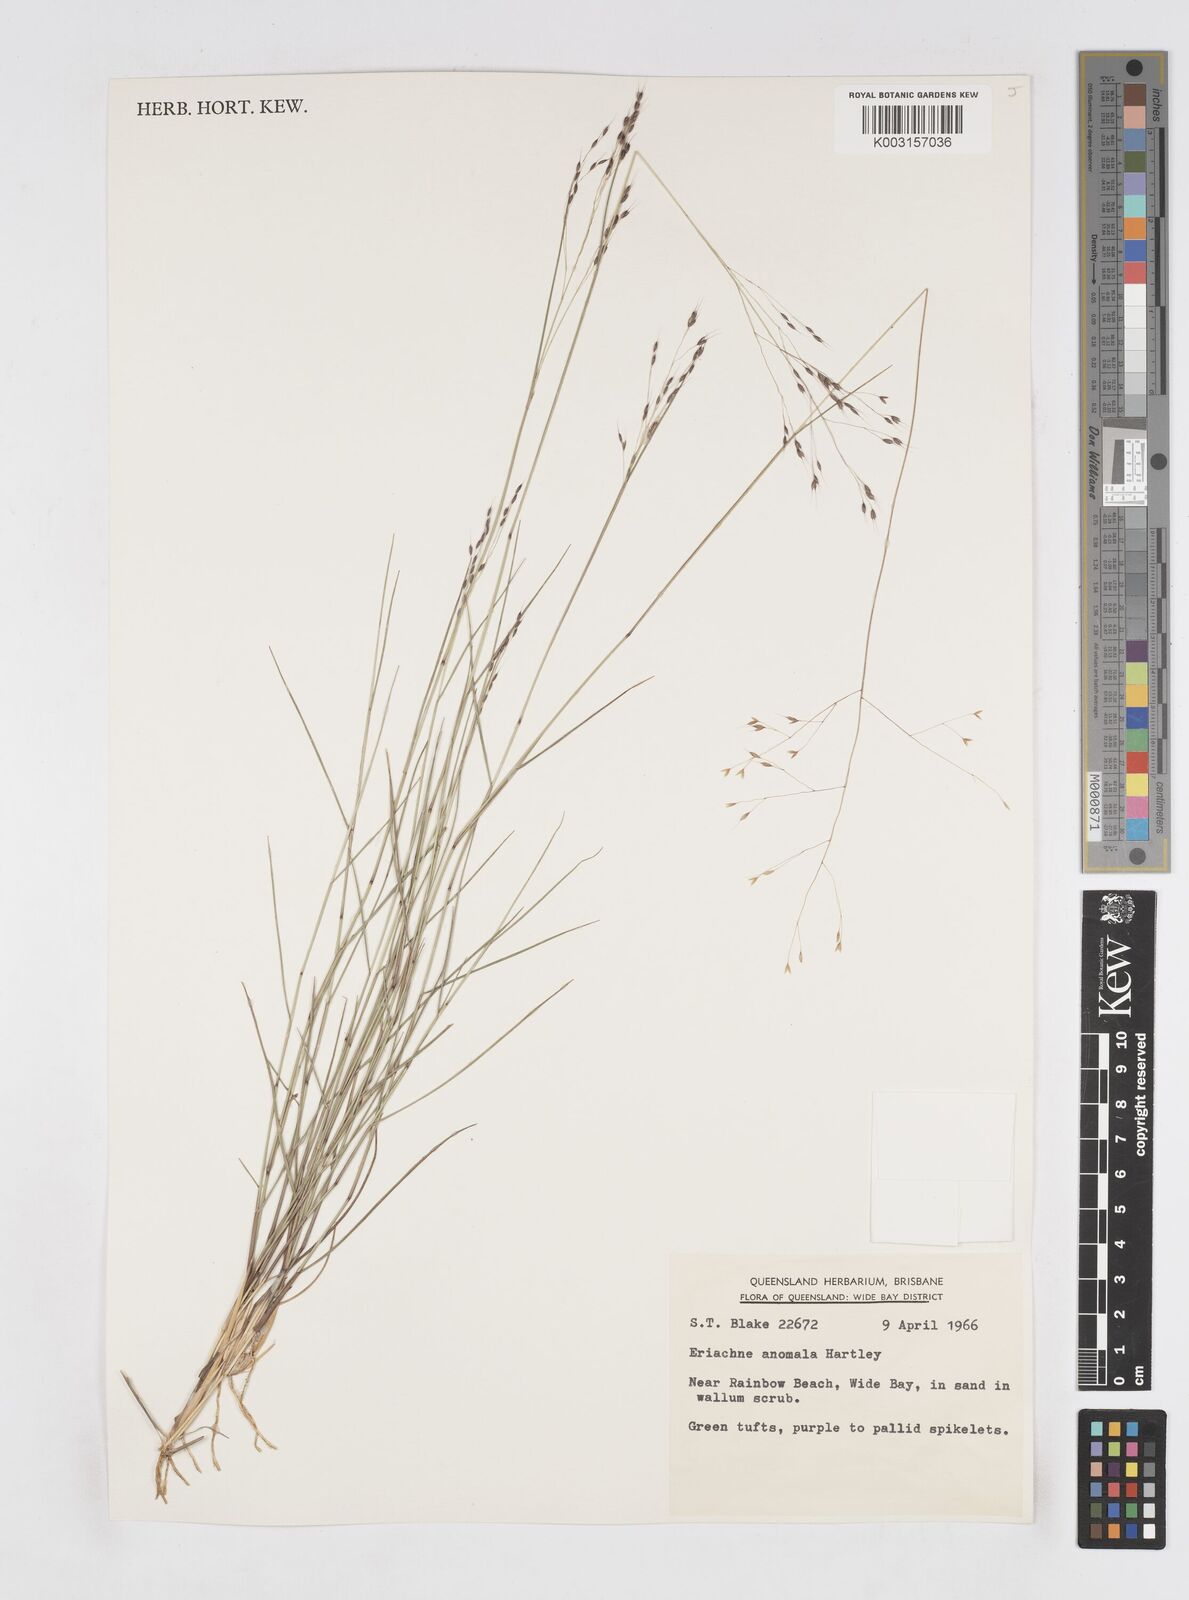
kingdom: Plantae
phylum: Tracheophyta
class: Liliopsida
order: Poales
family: Poaceae
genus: Eriachne
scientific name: Eriachne pallescens
